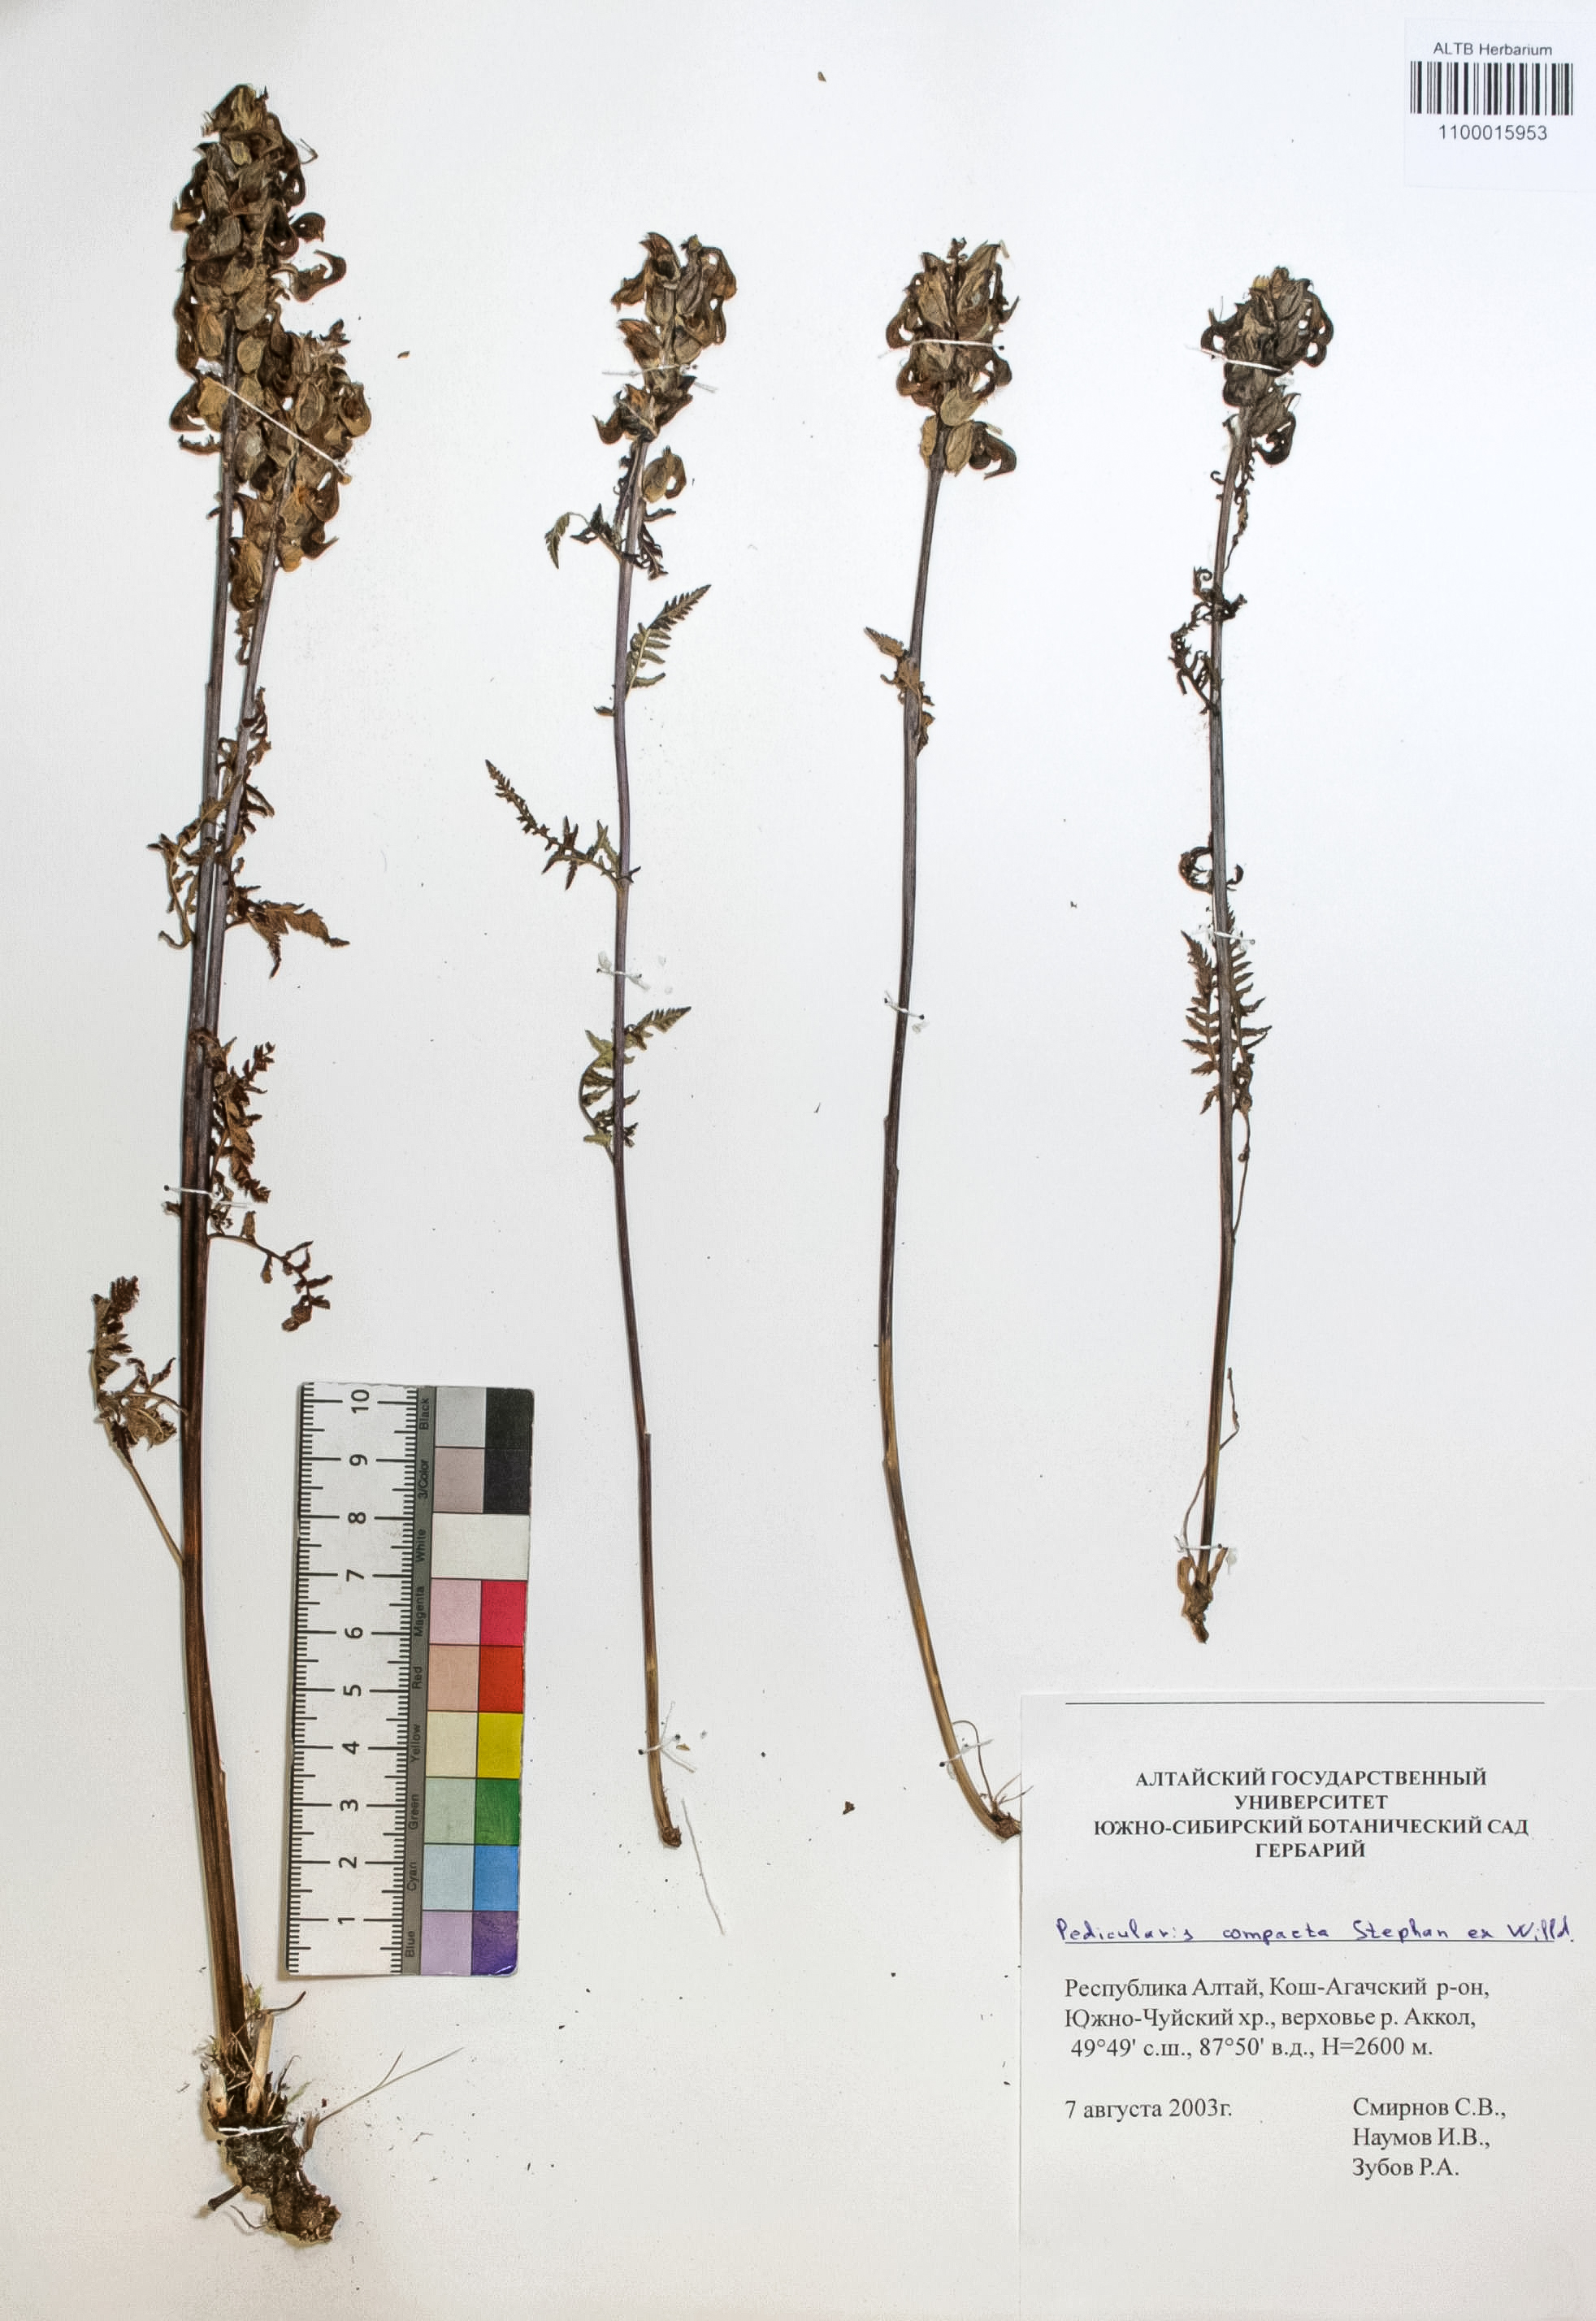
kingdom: Plantae
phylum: Tracheophyta
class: Magnoliopsida
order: Lamiales
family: Orobanchaceae
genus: Pedicularis
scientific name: Pedicularis compacta
